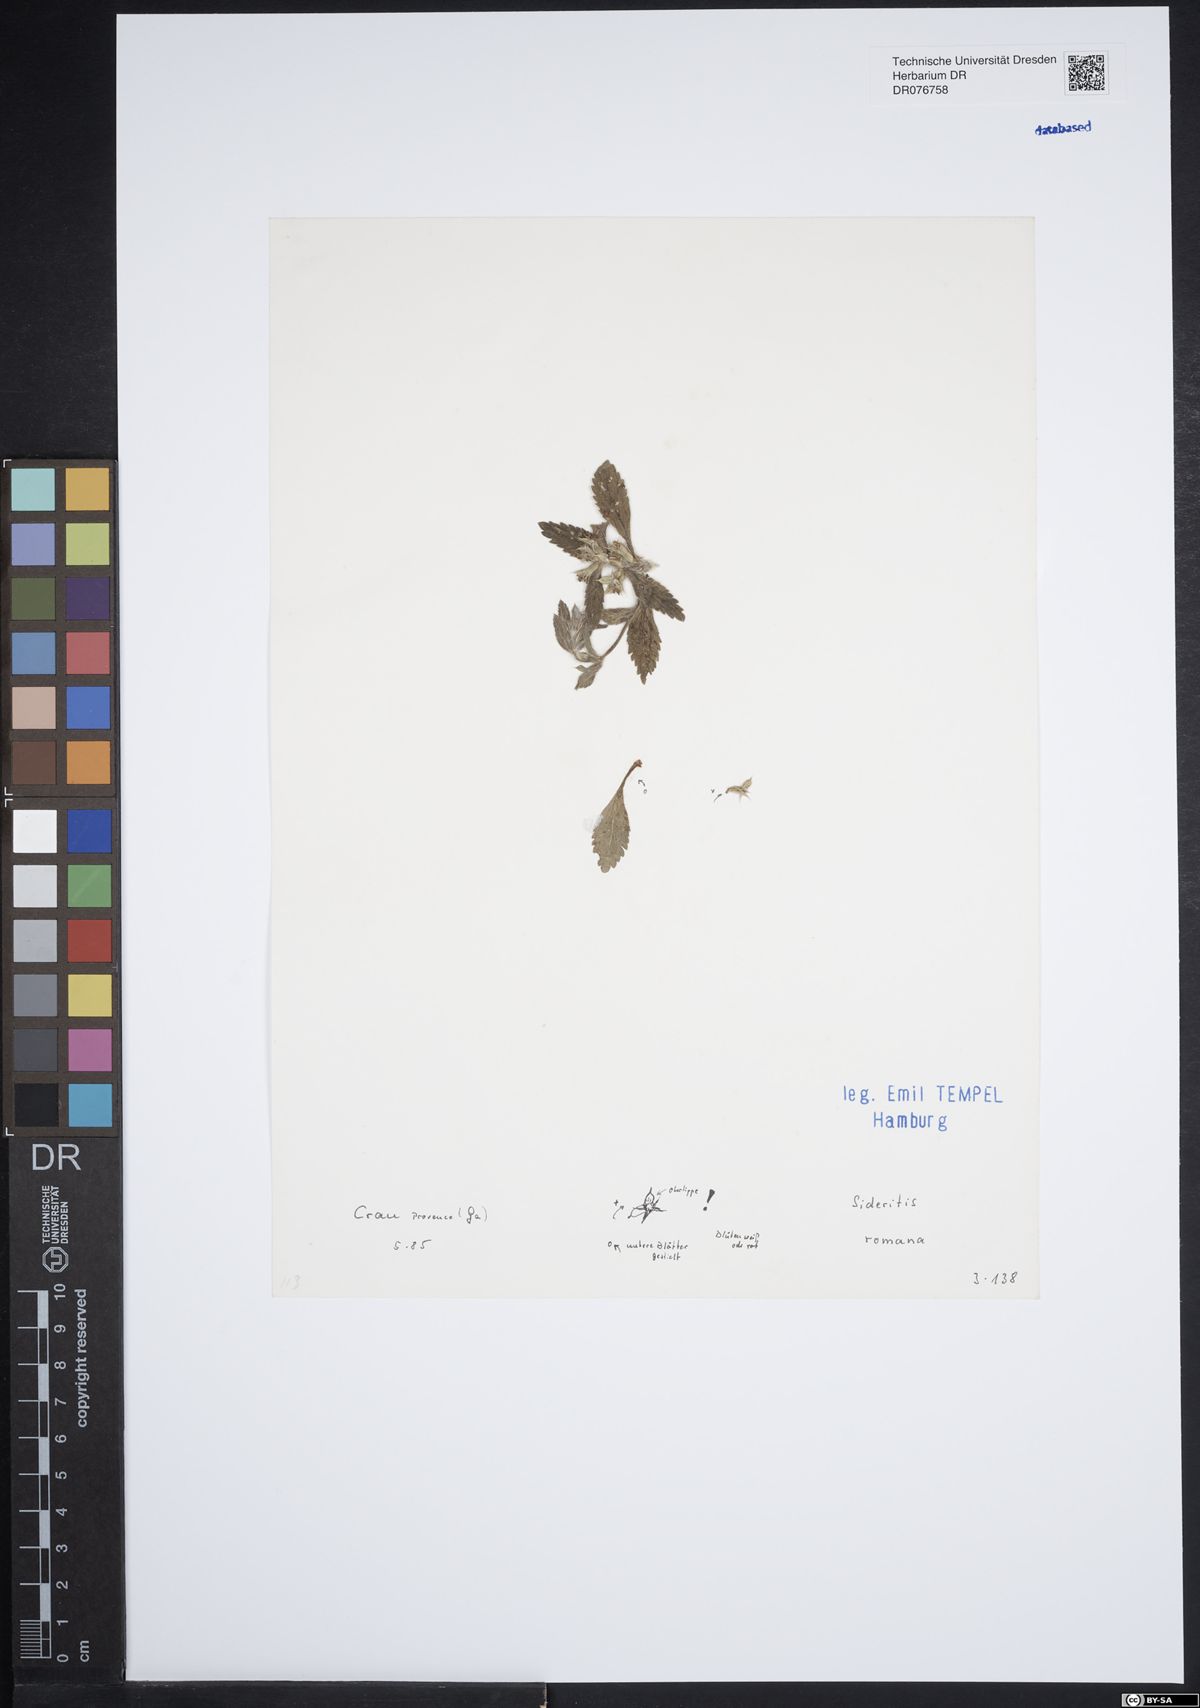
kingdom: Plantae
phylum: Tracheophyta
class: Magnoliopsida
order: Lamiales
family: Lamiaceae
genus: Sideritis
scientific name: Sideritis romana
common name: Simplebeak ironwort
